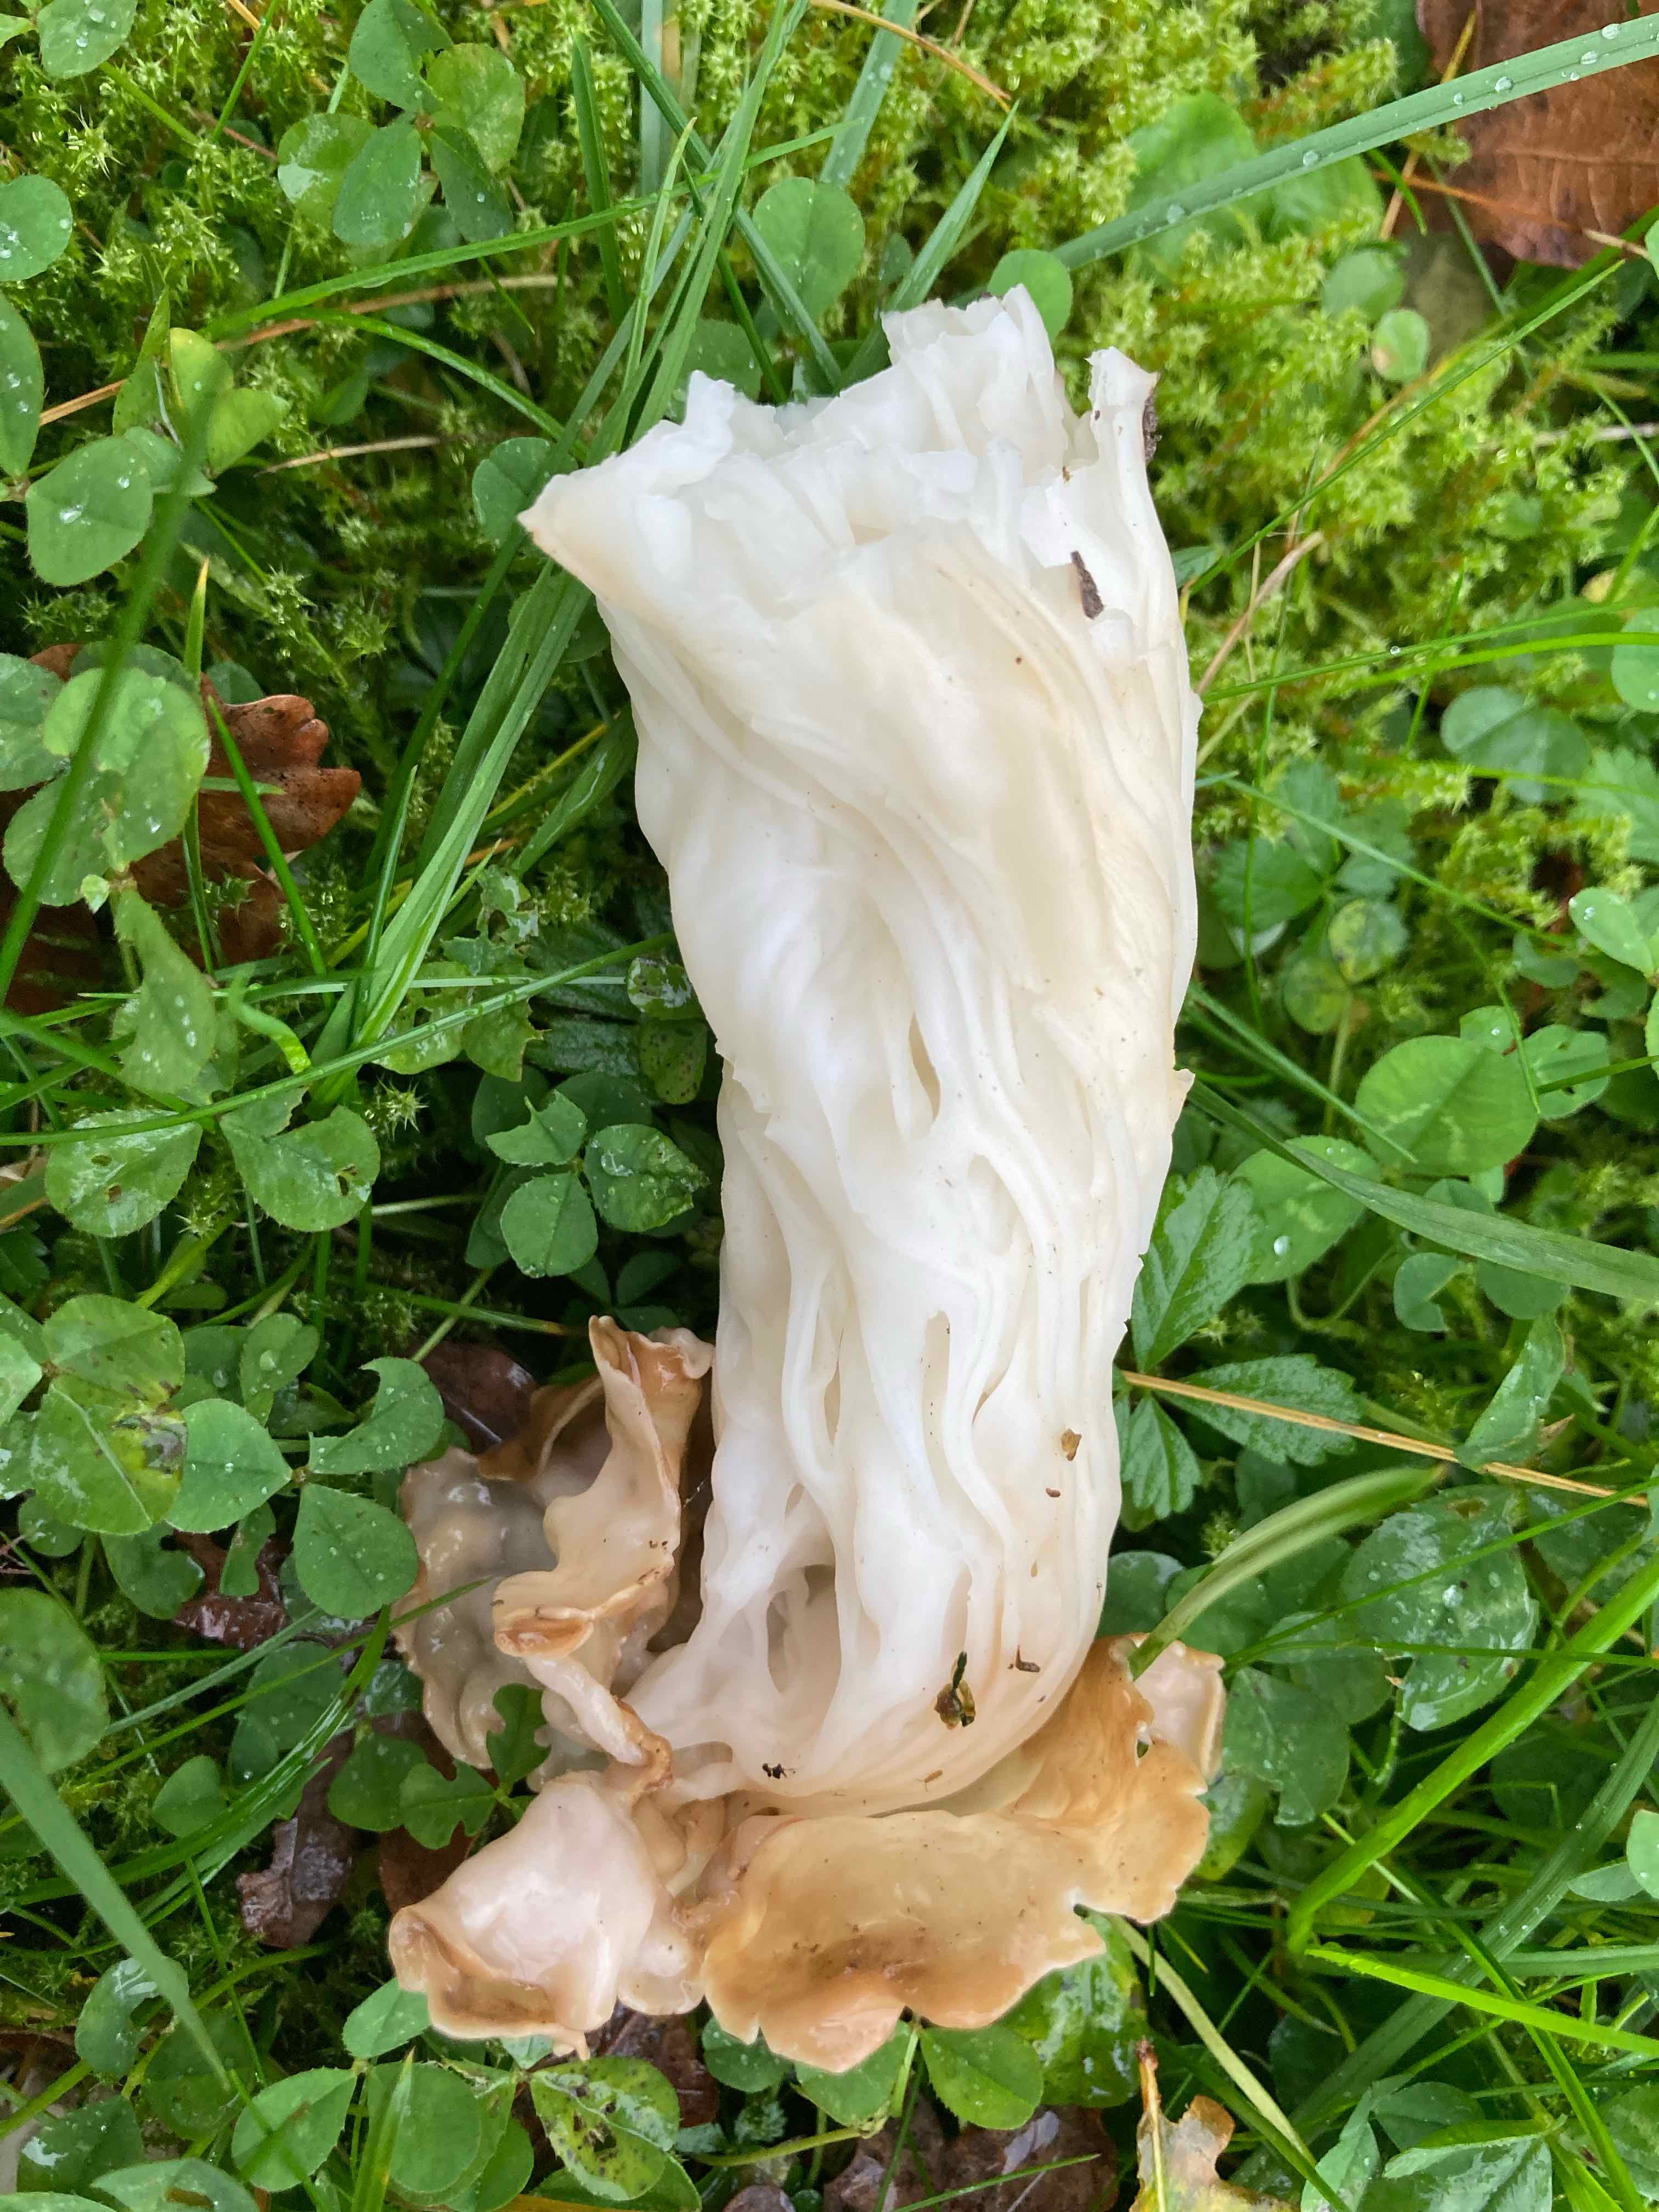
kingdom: Fungi
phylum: Ascomycota
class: Pezizomycetes
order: Pezizales
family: Helvellaceae
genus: Helvella
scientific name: Helvella crispa
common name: kruset foldhat
